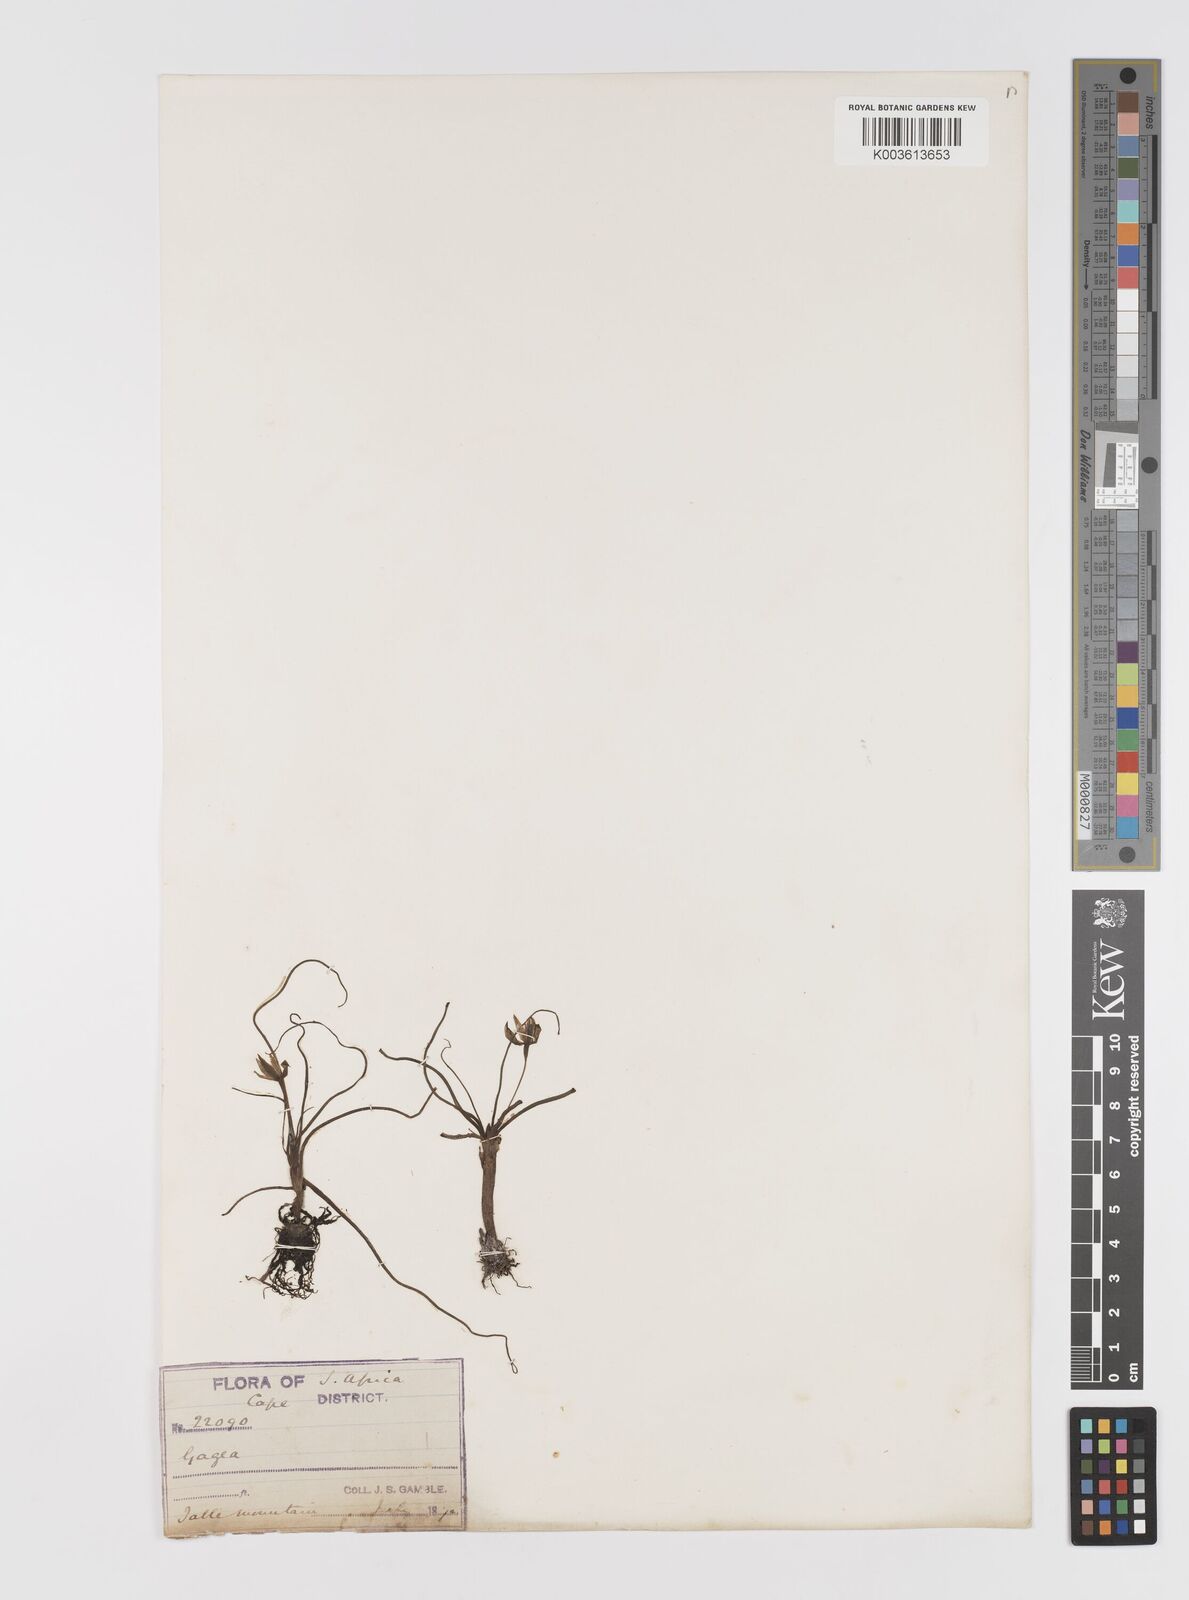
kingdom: Plantae
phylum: Tracheophyta
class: Liliopsida
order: Asparagales
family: Hypoxidaceae
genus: Pauridia
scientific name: Pauridia
